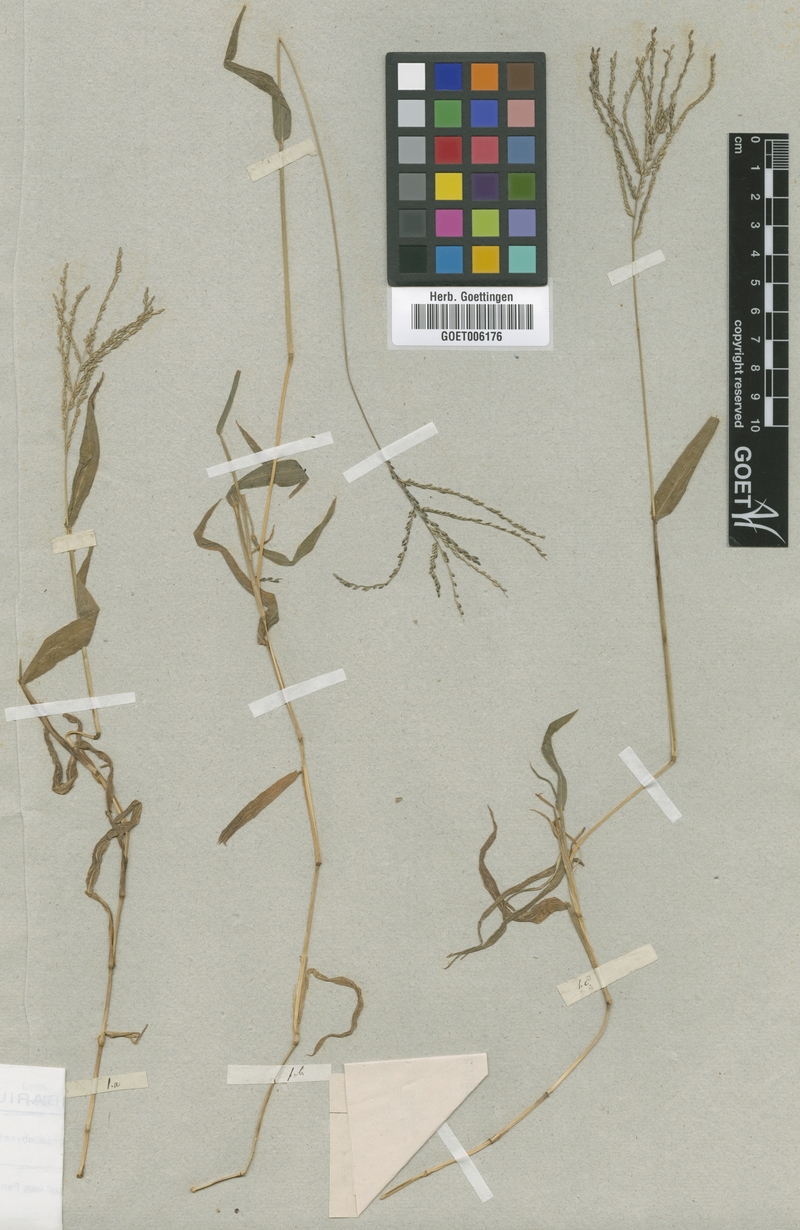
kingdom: Plantae
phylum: Tracheophyta
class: Liliopsida
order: Poales
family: Poaceae
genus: Digitaria
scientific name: Digitaria abyssinica
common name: African couchgrass
